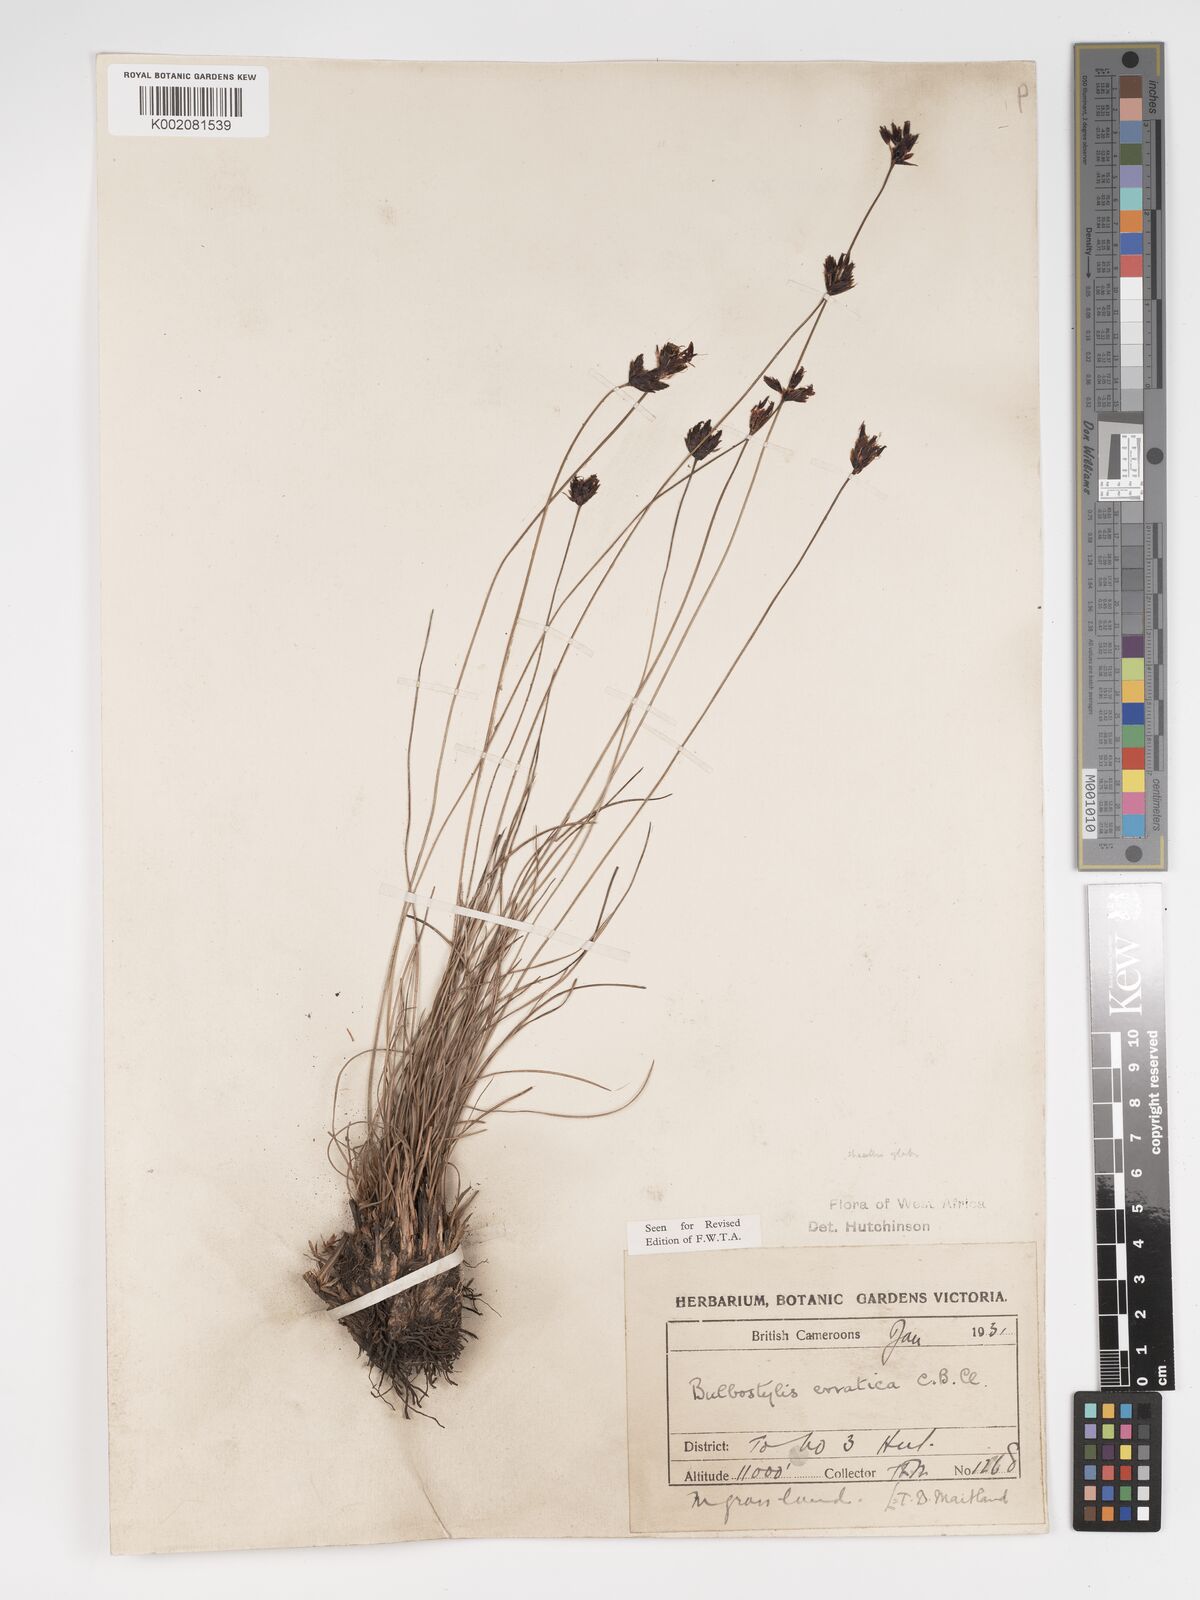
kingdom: Plantae
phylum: Tracheophyta
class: Liliopsida
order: Poales
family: Cyperaceae
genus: Bulbostylis
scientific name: Bulbostylis schoenoides
